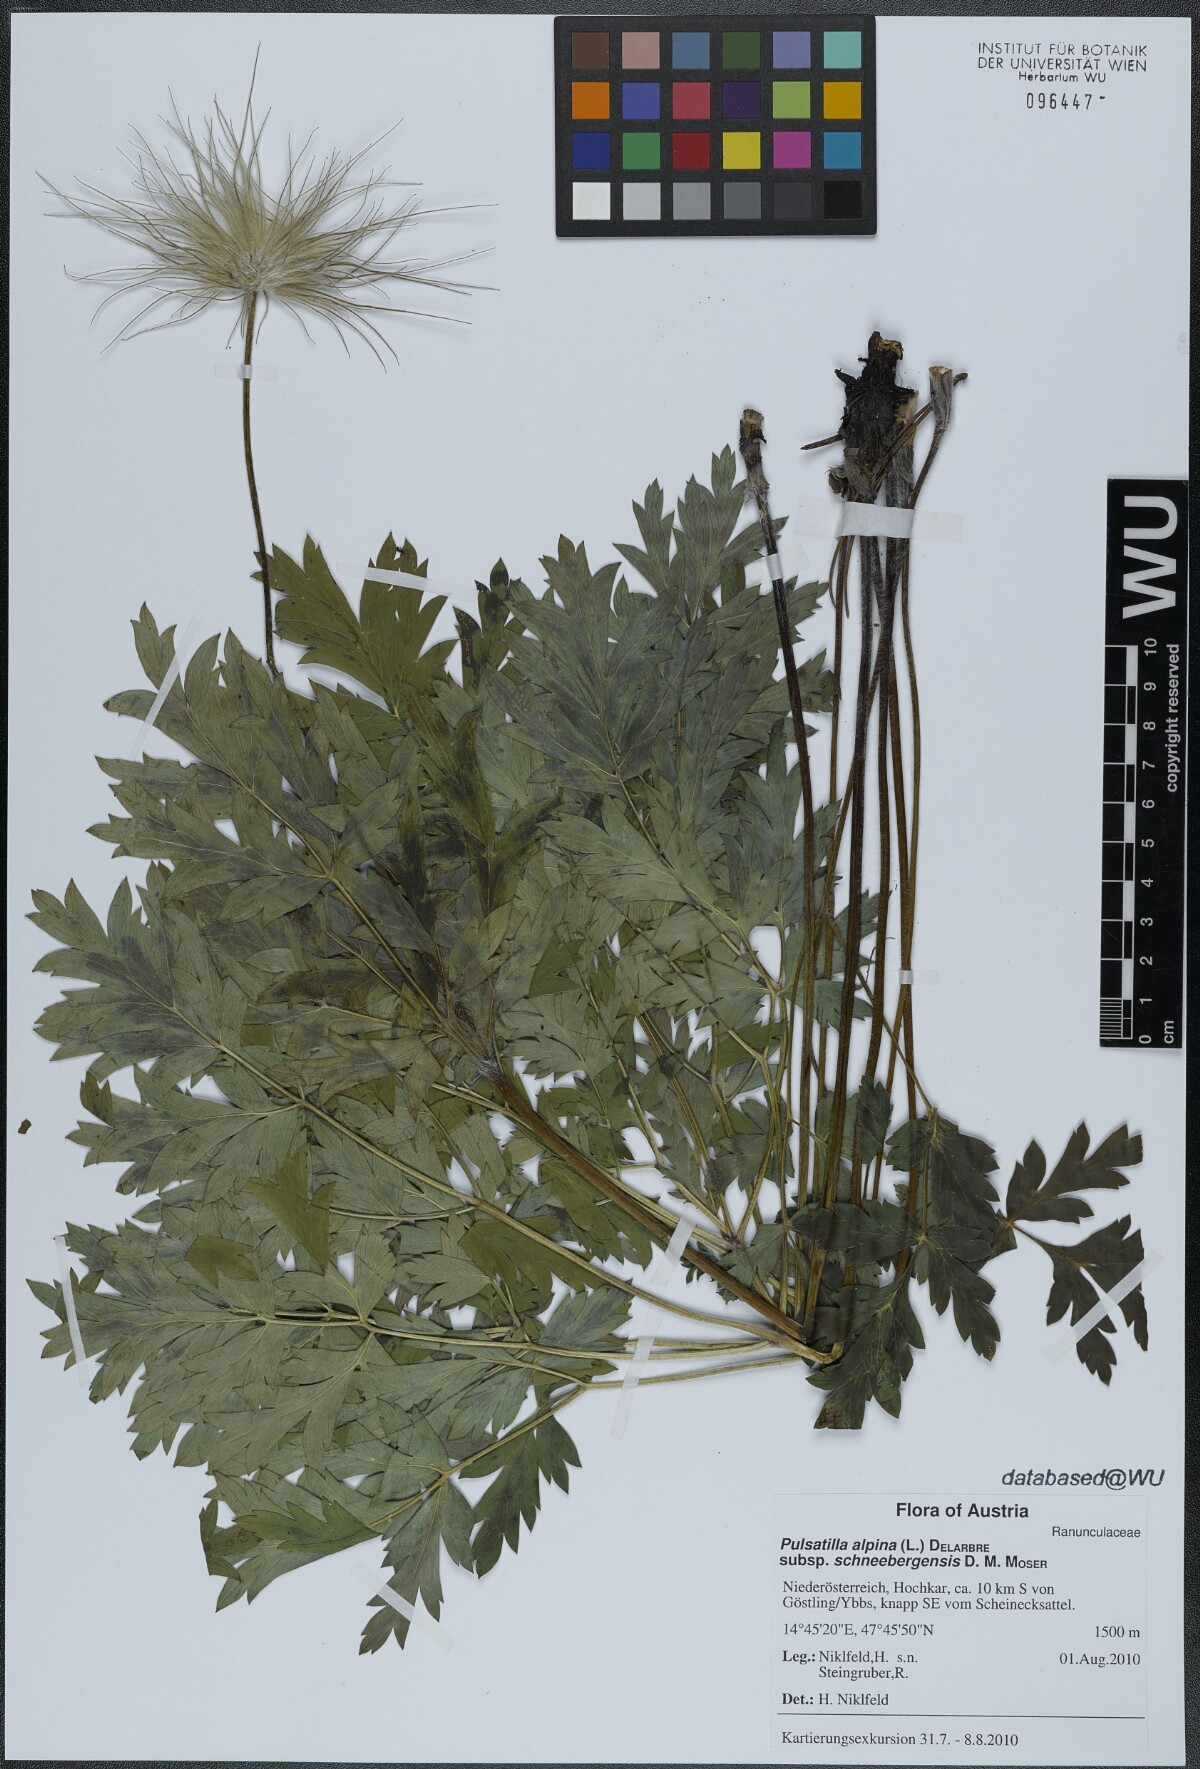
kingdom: Plantae
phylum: Tracheophyta
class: Magnoliopsida
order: Ranunculales
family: Ranunculaceae
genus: Pulsatilla
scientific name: Pulsatilla alpina
